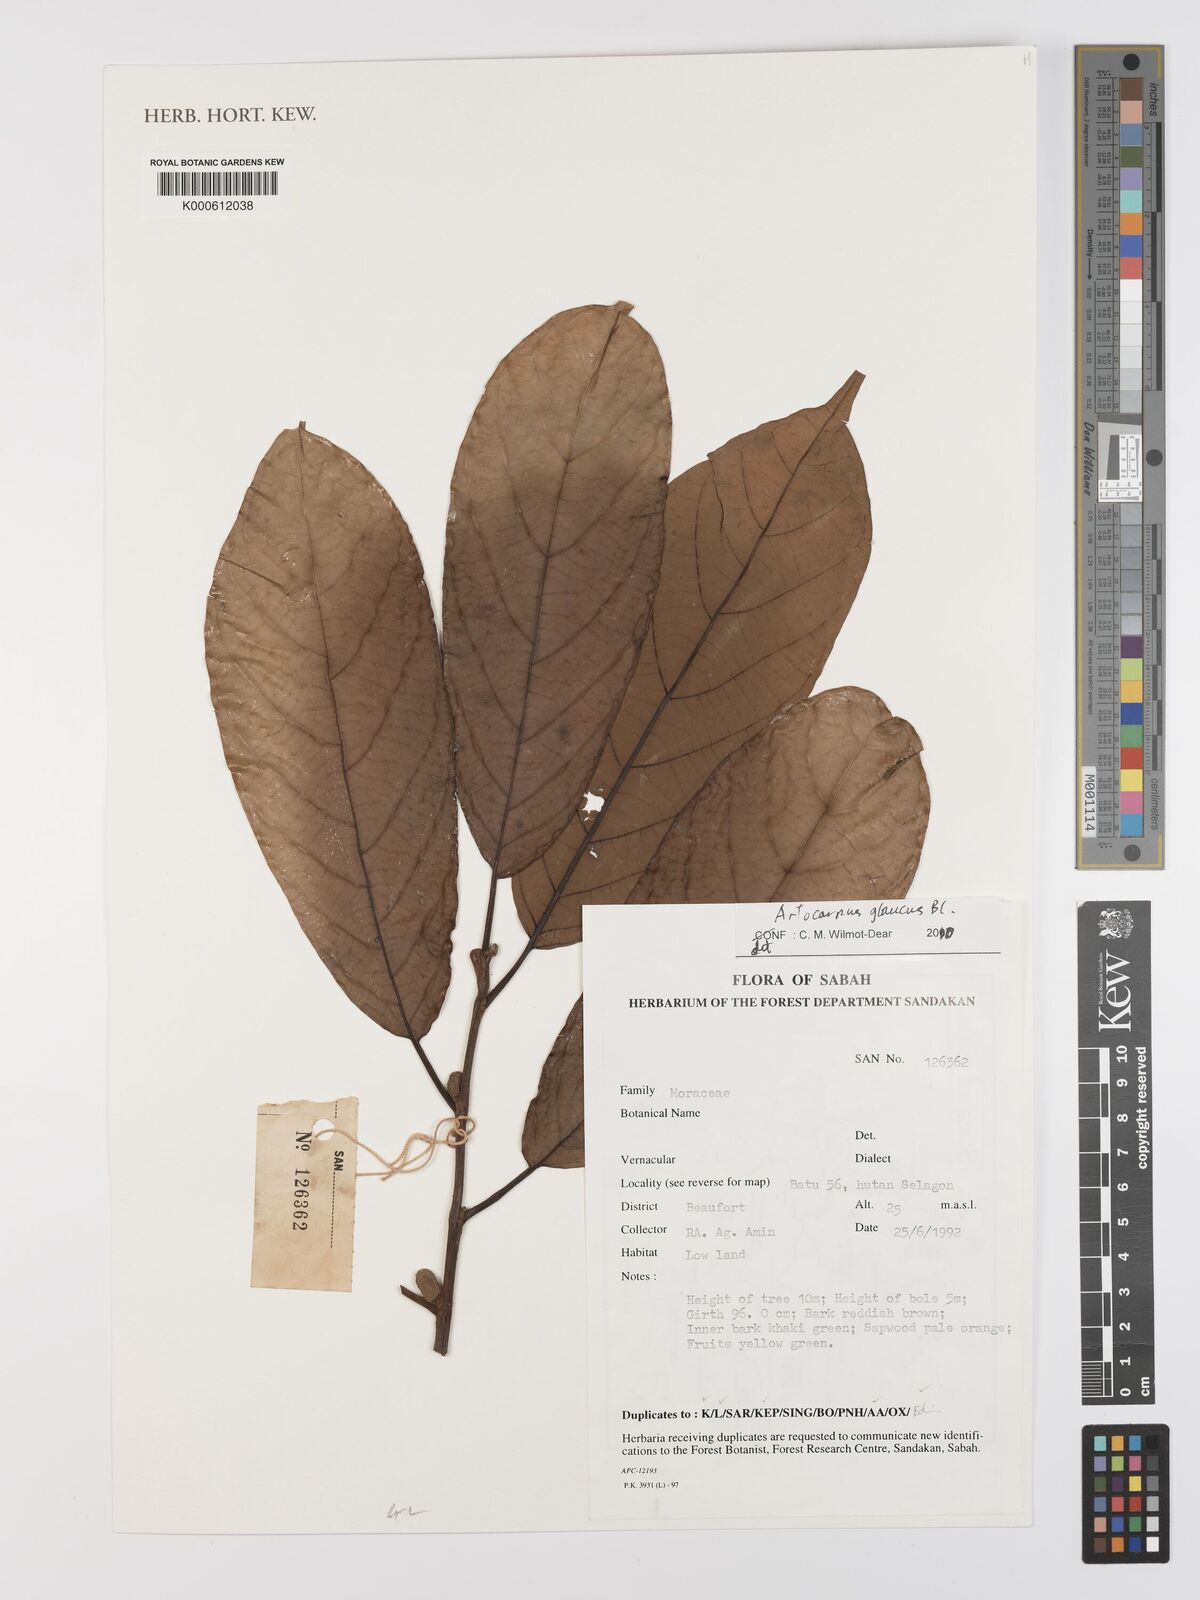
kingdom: Plantae
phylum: Tracheophyta
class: Magnoliopsida
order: Rosales
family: Moraceae
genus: Artocarpus
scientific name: Artocarpus glaucus
